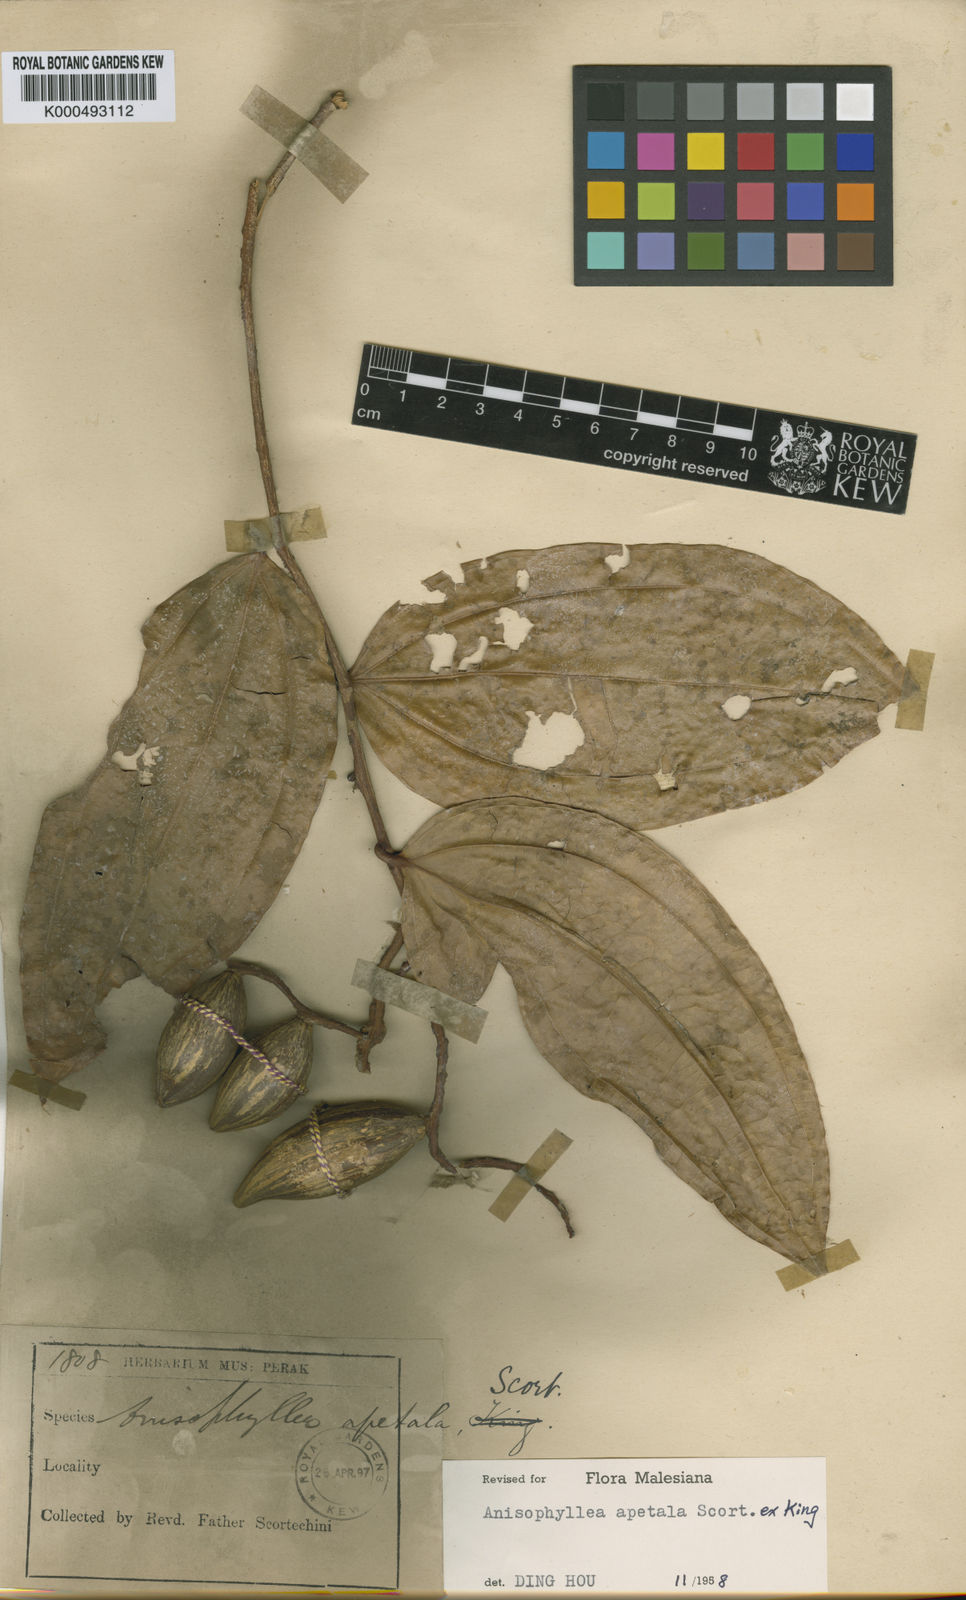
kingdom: Plantae
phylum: Tracheophyta
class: Magnoliopsida
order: Cucurbitales
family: Anisophylleaceae
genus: Anisophyllea
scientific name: Anisophyllea apetala
